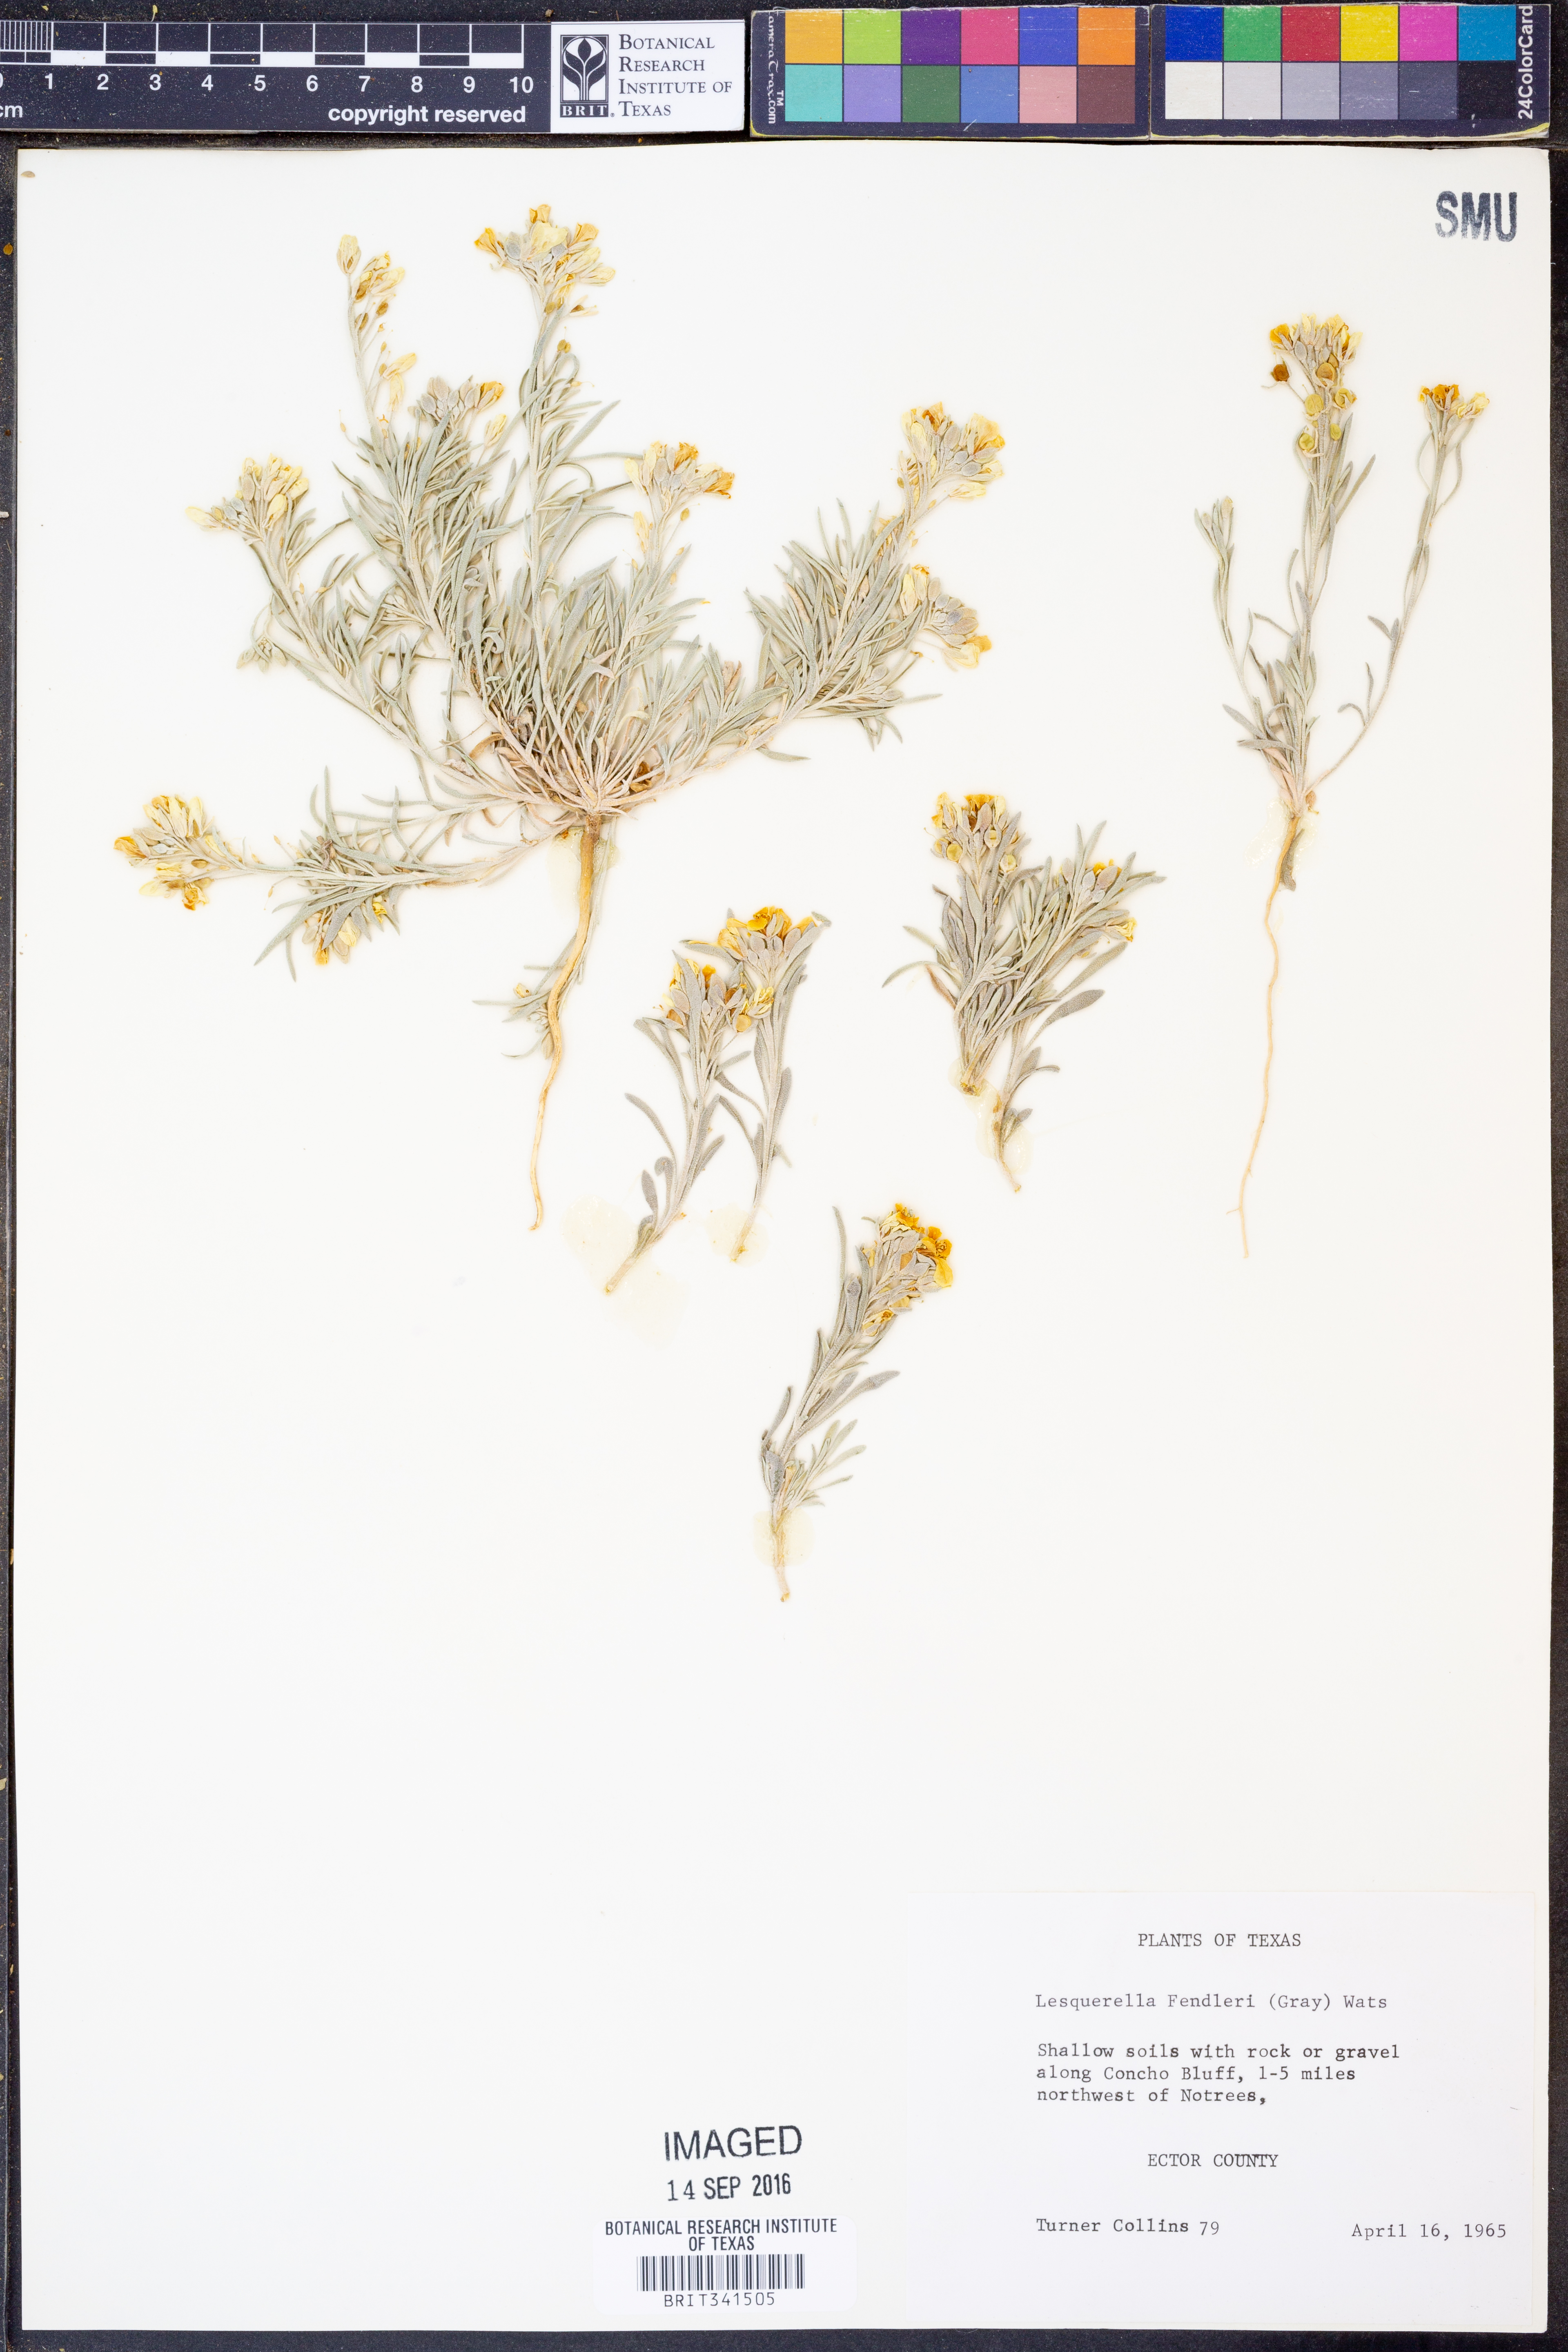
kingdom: Plantae
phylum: Tracheophyta
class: Magnoliopsida
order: Brassicales
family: Brassicaceae
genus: Physaria
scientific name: Physaria fendleri
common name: Fendler's bladderpod
